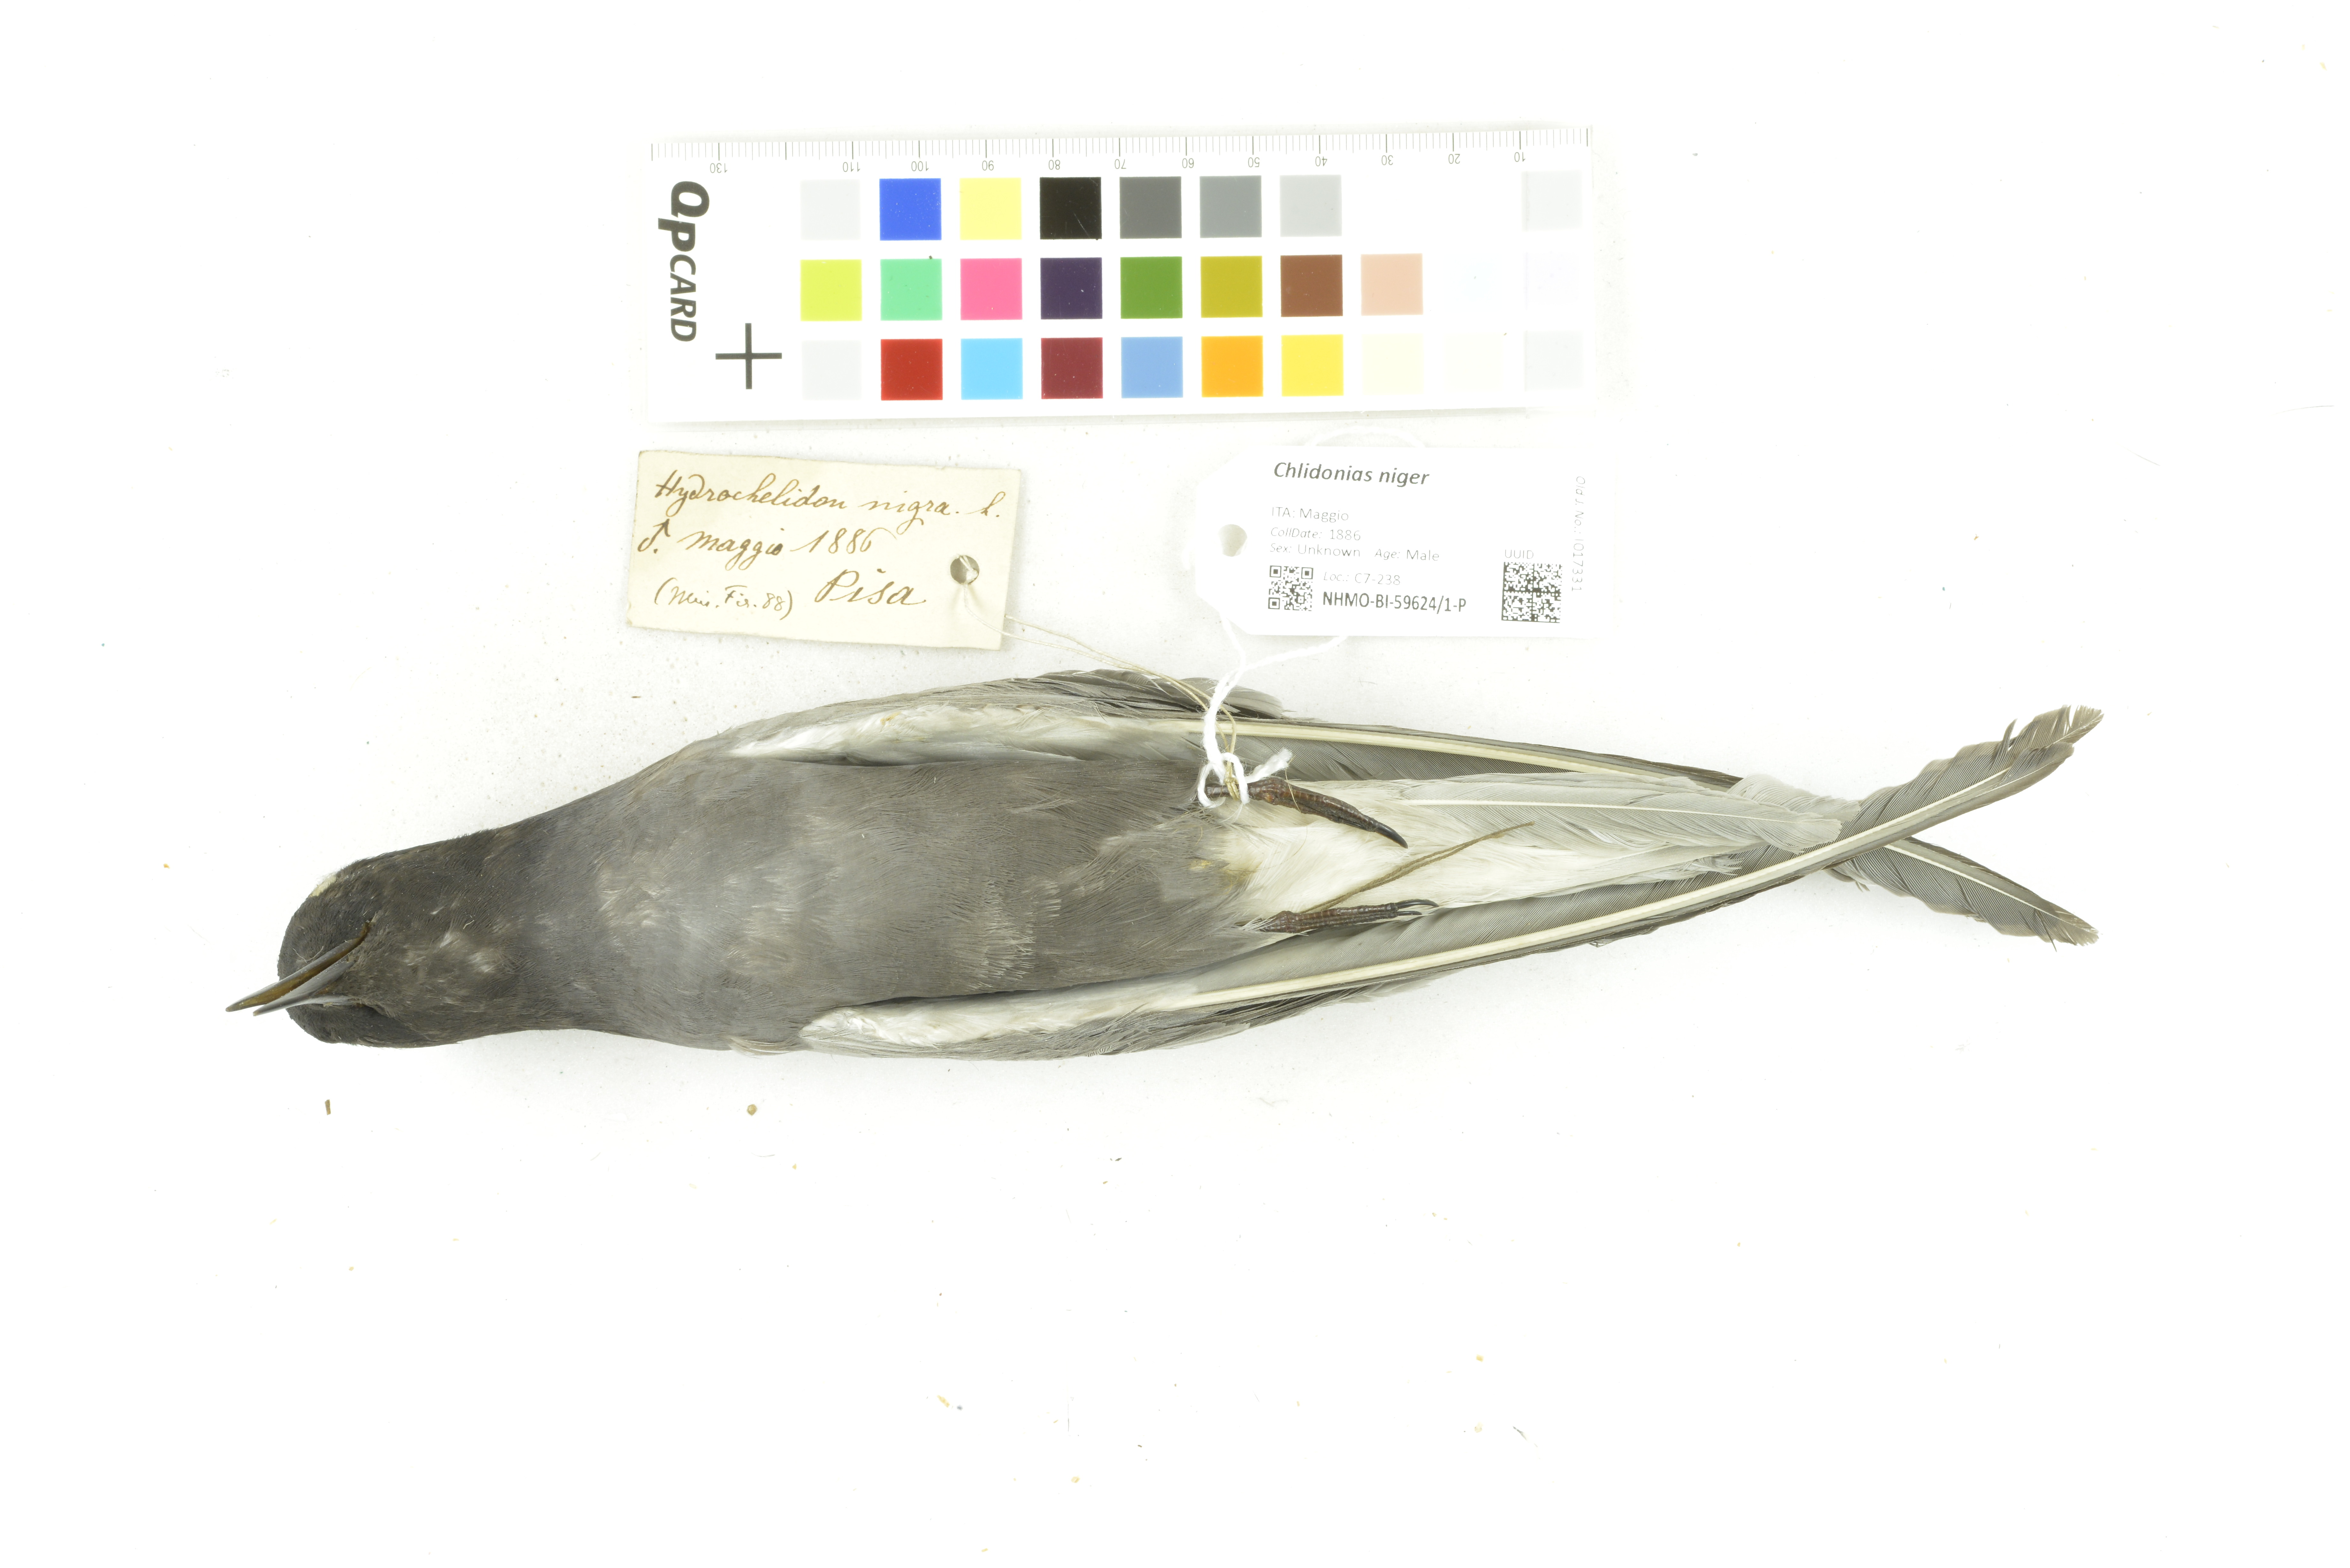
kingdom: Animalia
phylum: Chordata
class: Aves
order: Charadriiformes
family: Laridae
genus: Chlidonias
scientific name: Chlidonias niger
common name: Black tern
